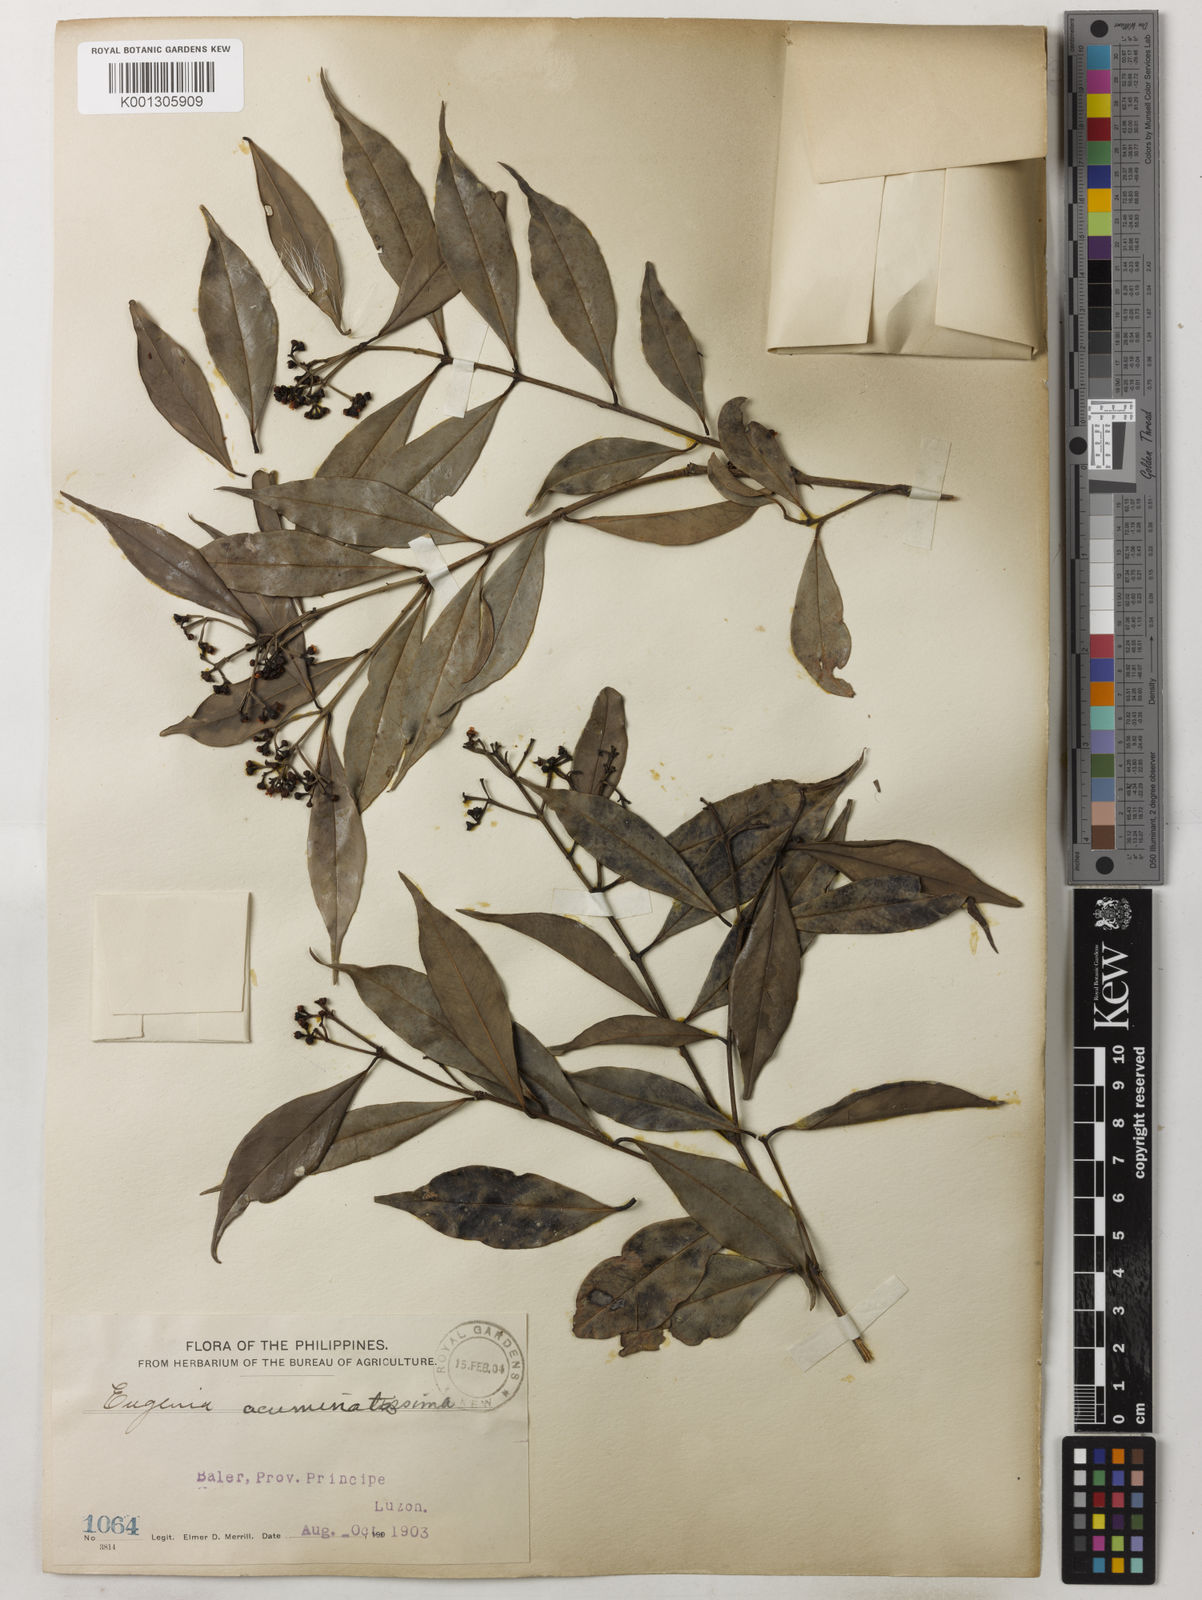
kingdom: Plantae
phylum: Tracheophyta
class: Magnoliopsida
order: Myrtales
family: Myrtaceae
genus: Syzygium
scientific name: Syzygium acuminatissimum
